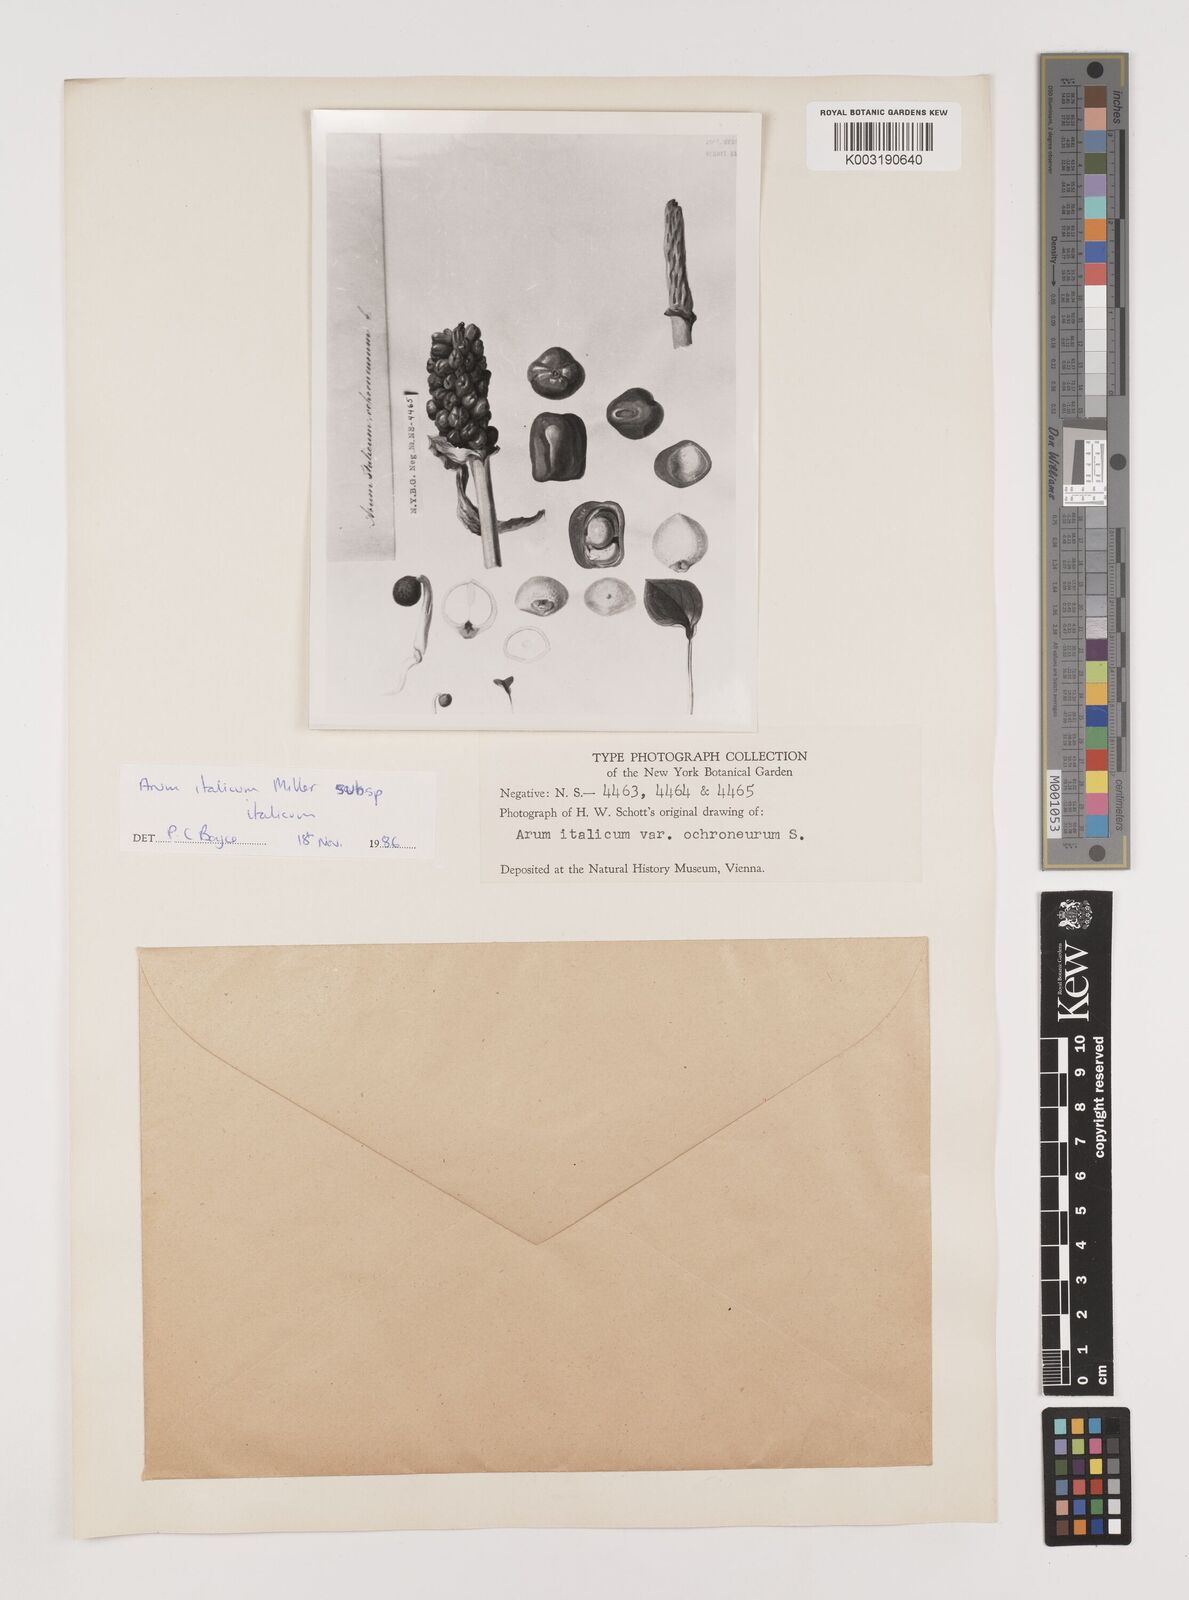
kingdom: Plantae
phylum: Tracheophyta
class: Liliopsida
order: Alismatales
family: Araceae
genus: Arum
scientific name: Arum italicum
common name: Italian lords-and-ladies
